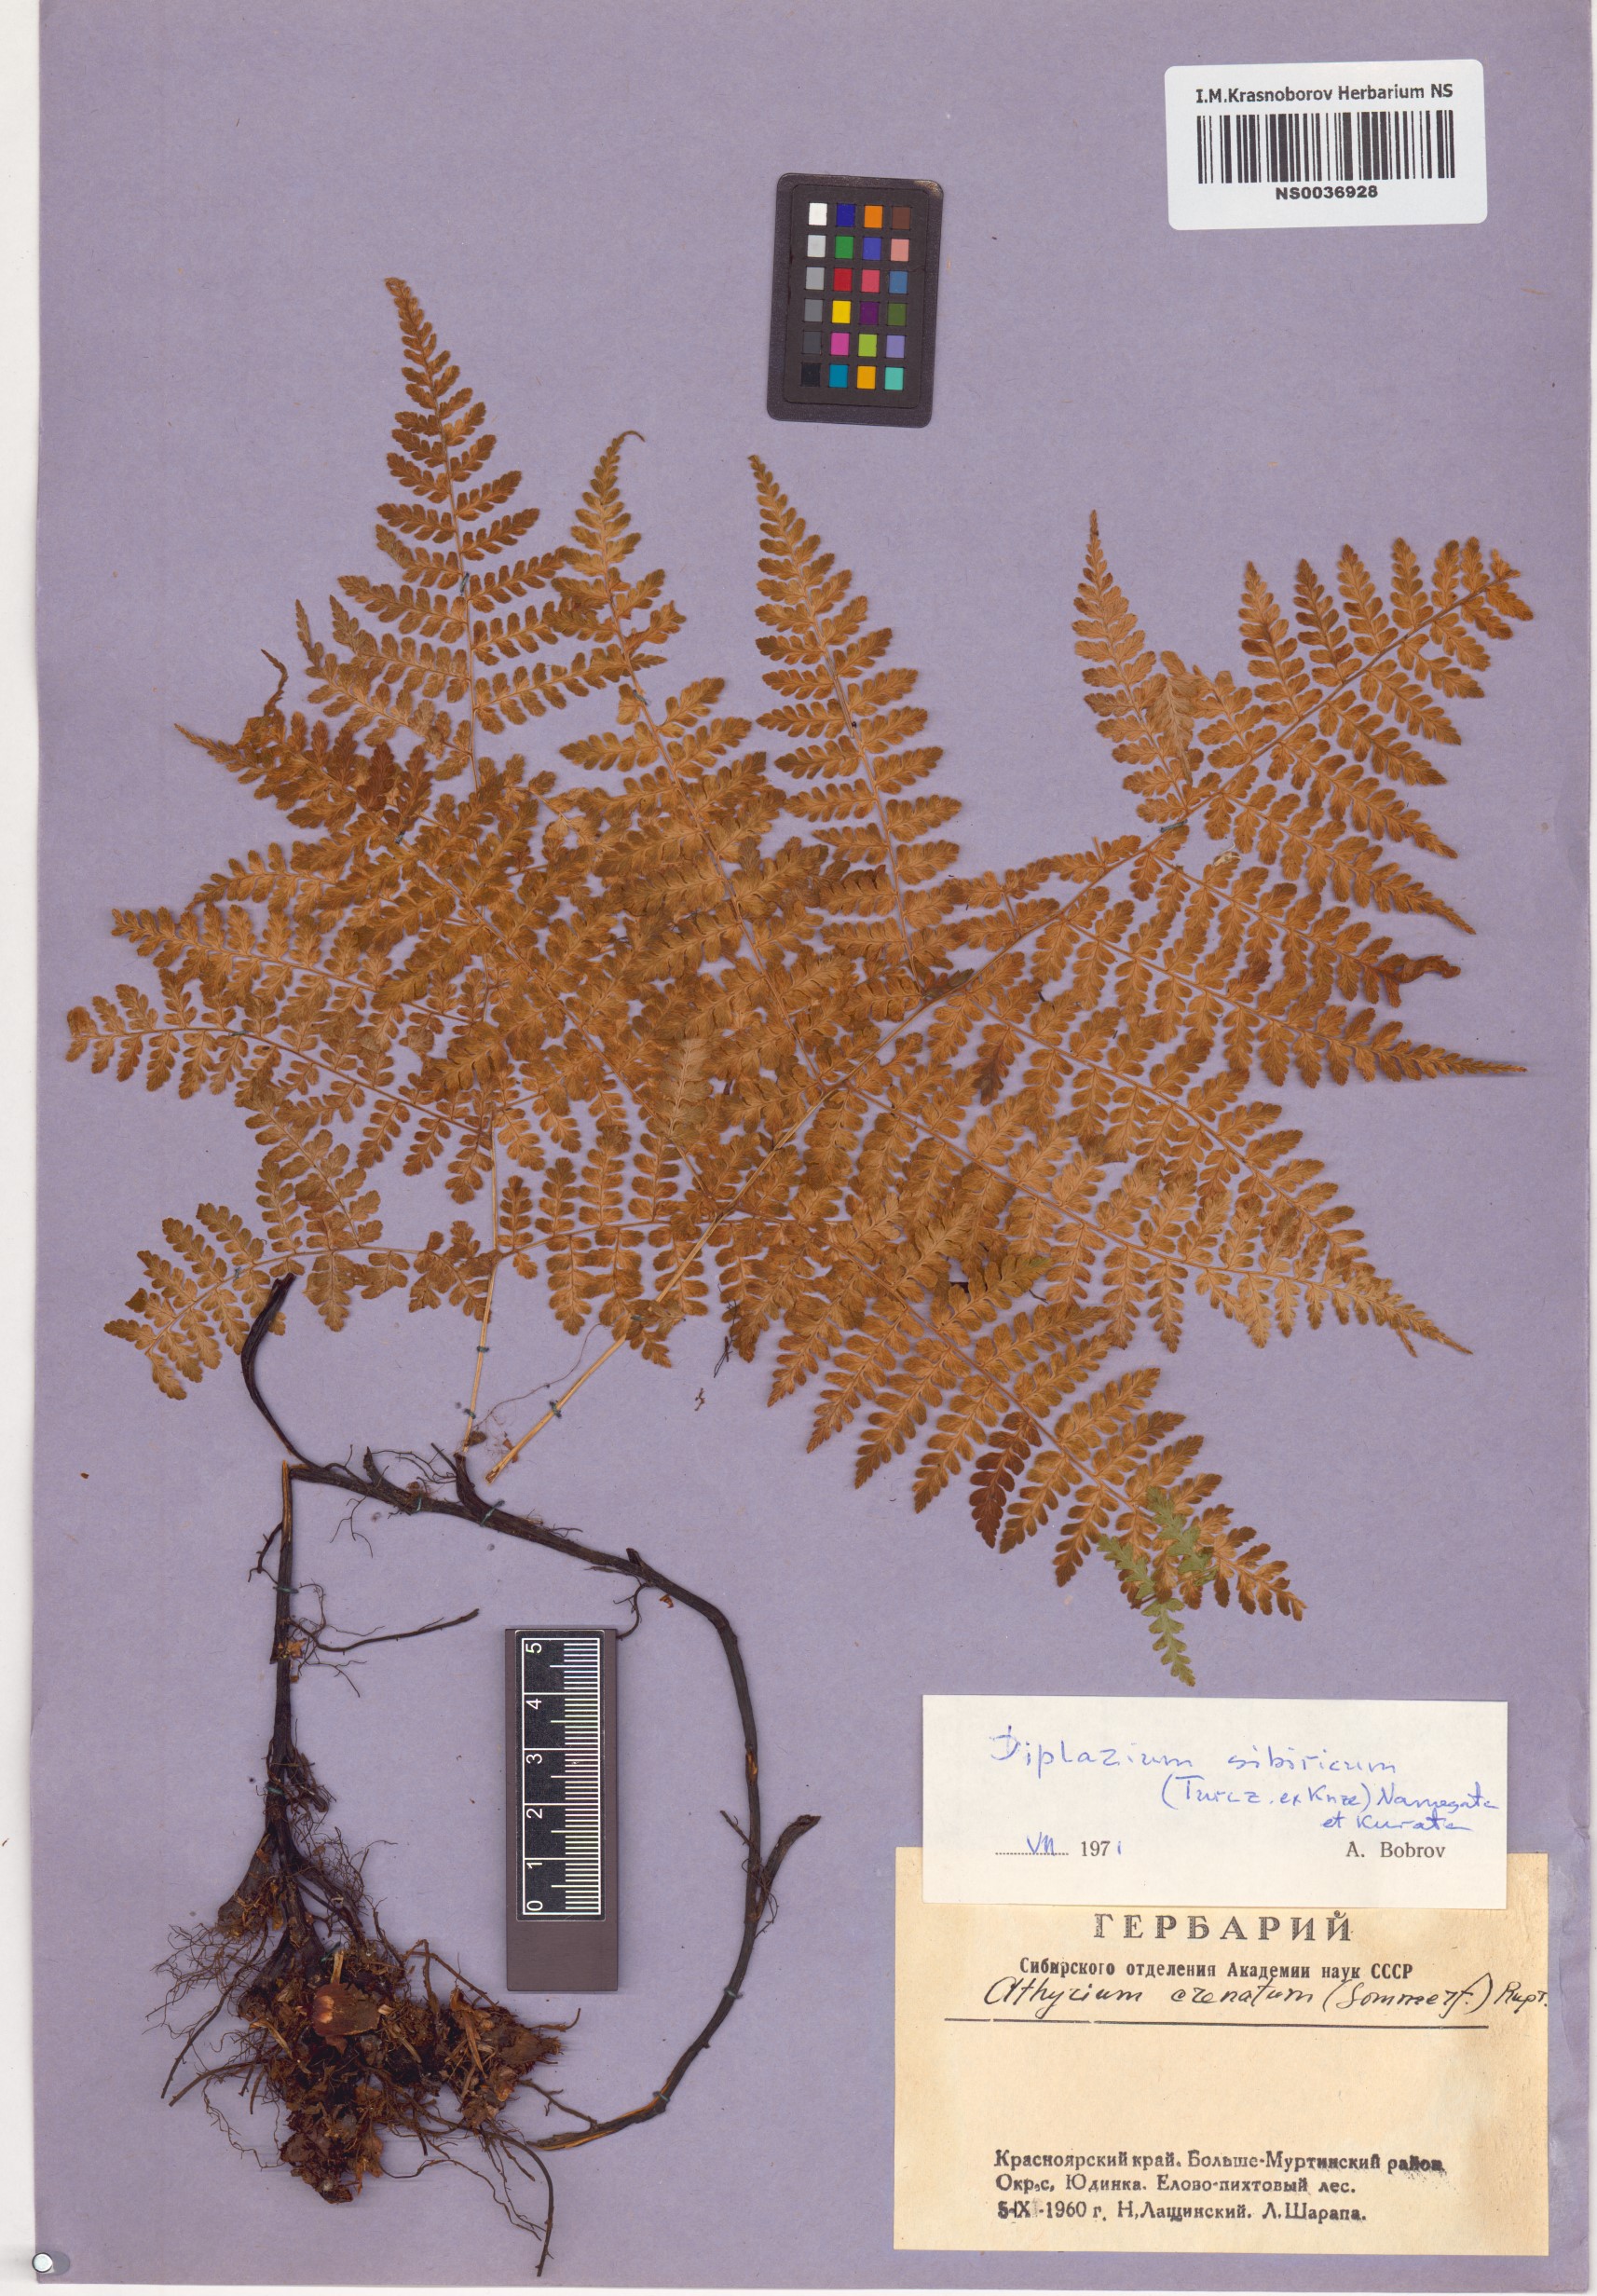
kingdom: Plantae
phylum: Tracheophyta
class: Polypodiopsida
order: Polypodiales
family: Athyriaceae
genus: Diplazium
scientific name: Diplazium sibiricum
